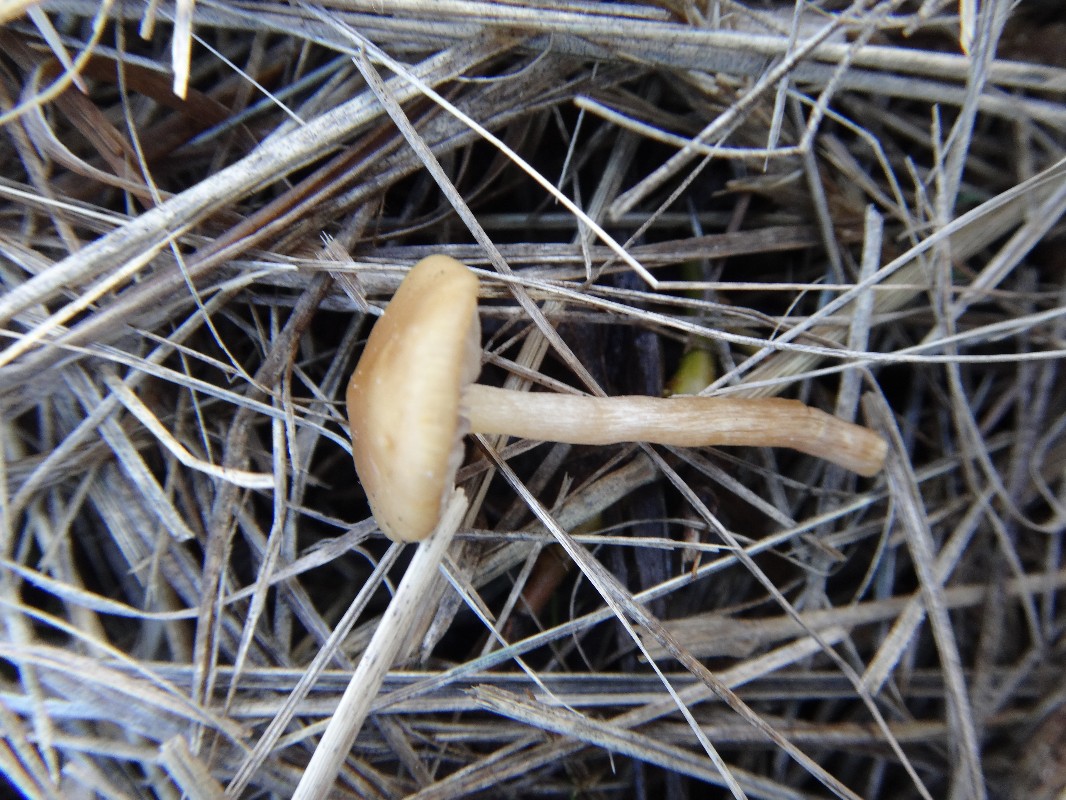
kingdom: Fungi
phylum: Basidiomycota
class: Agaricomycetes
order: Agaricales
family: Strophariaceae
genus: Hypholoma
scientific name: Hypholoma subericaeum
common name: eng-svovlhat
